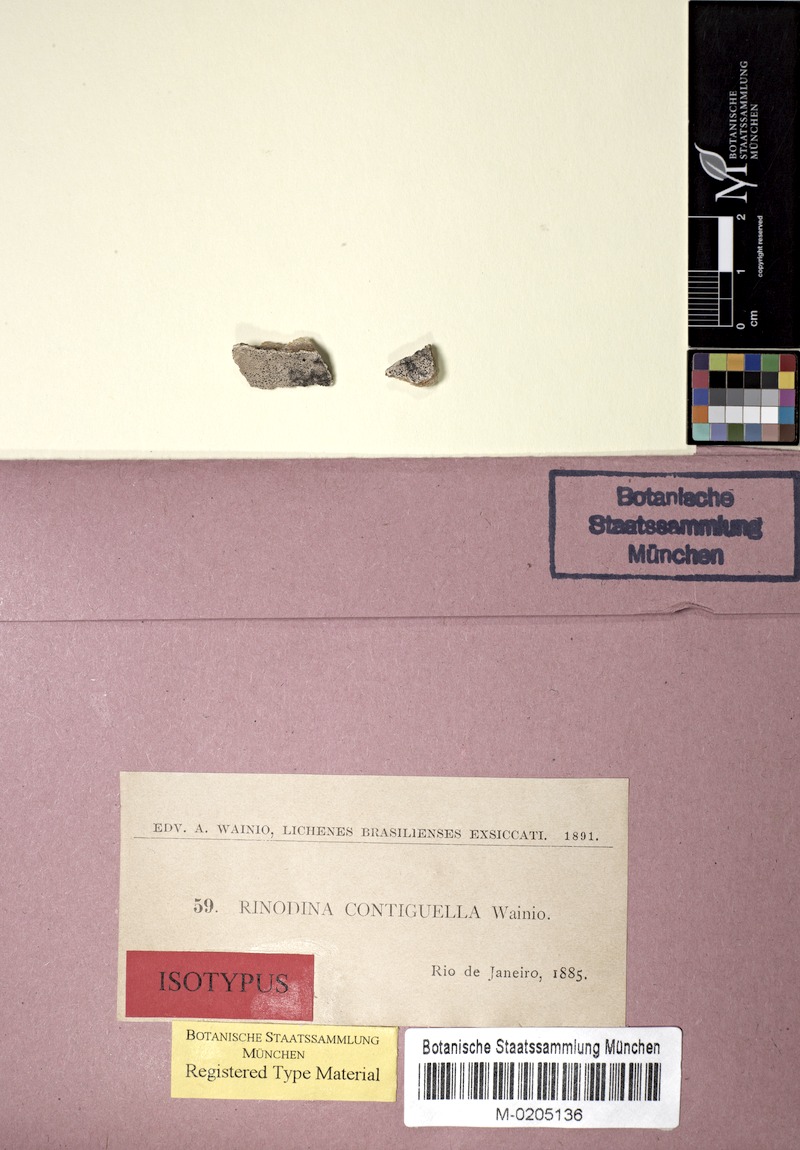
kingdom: Fungi
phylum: Ascomycota
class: Lecanoromycetes
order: Caliciales
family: Caliciaceae
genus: Buellia
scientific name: Buellia
